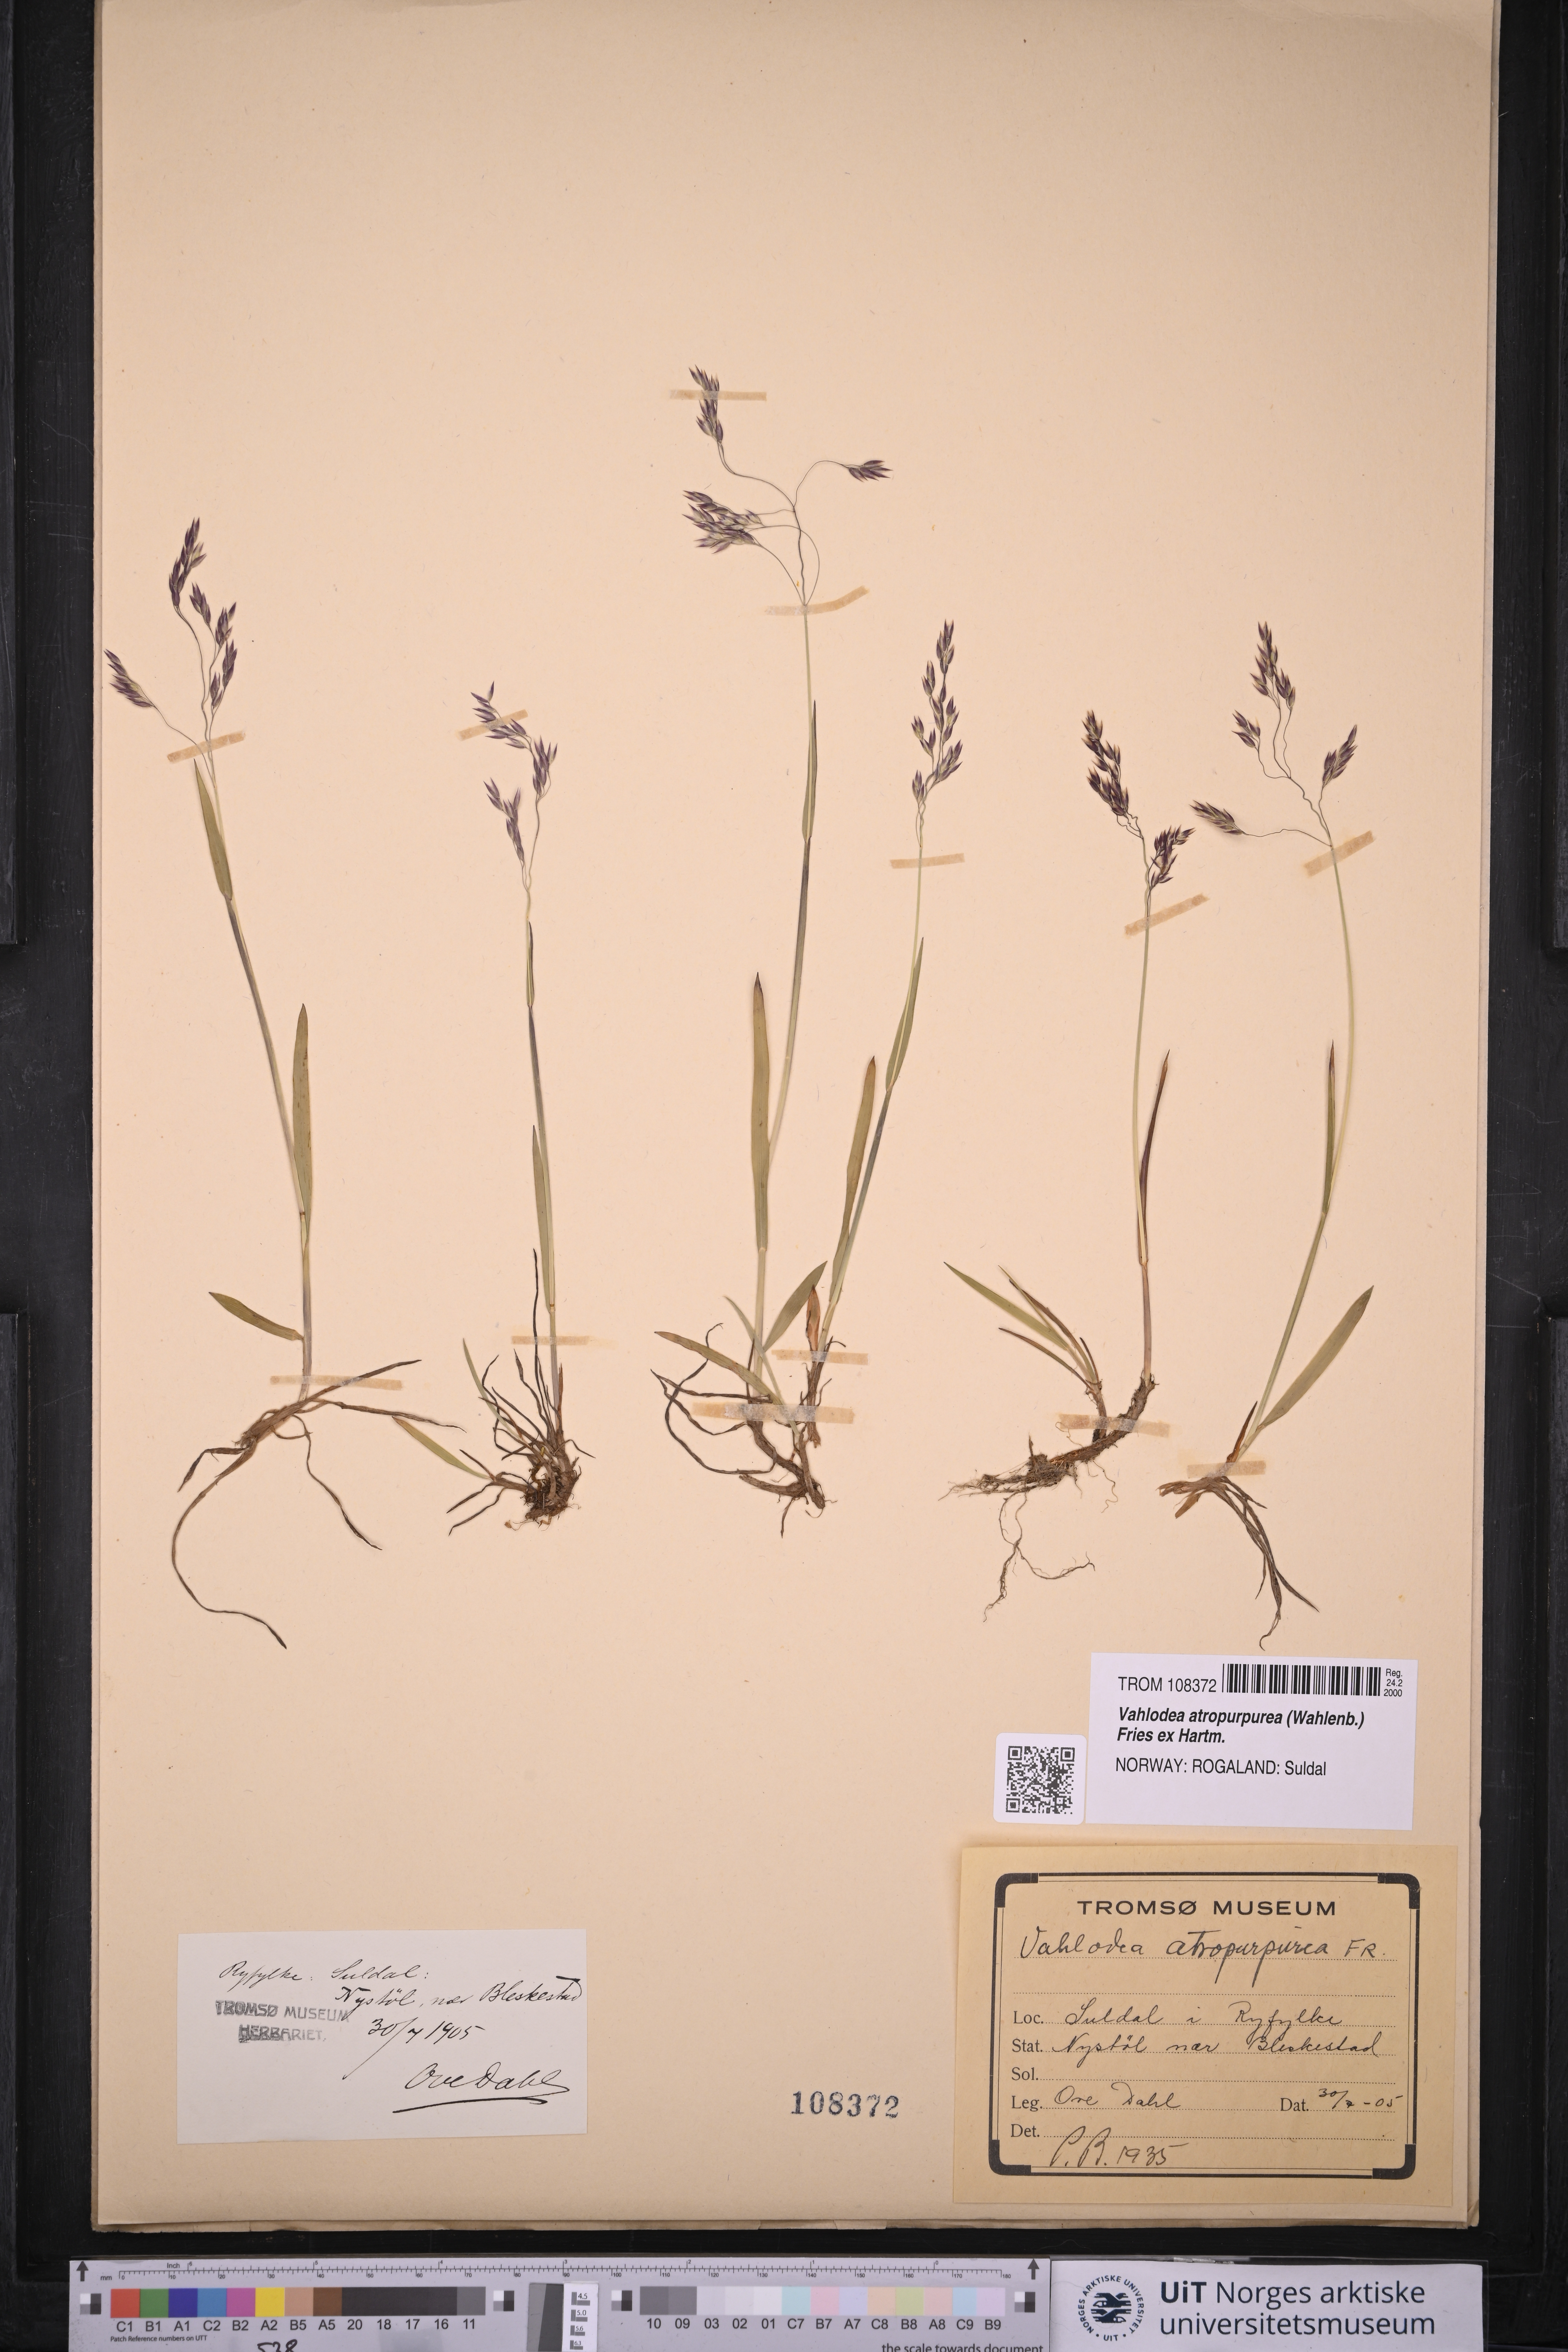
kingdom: Plantae
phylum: Tracheophyta
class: Liliopsida
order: Poales
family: Poaceae
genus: Vahlodea
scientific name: Vahlodea atropurpurea
